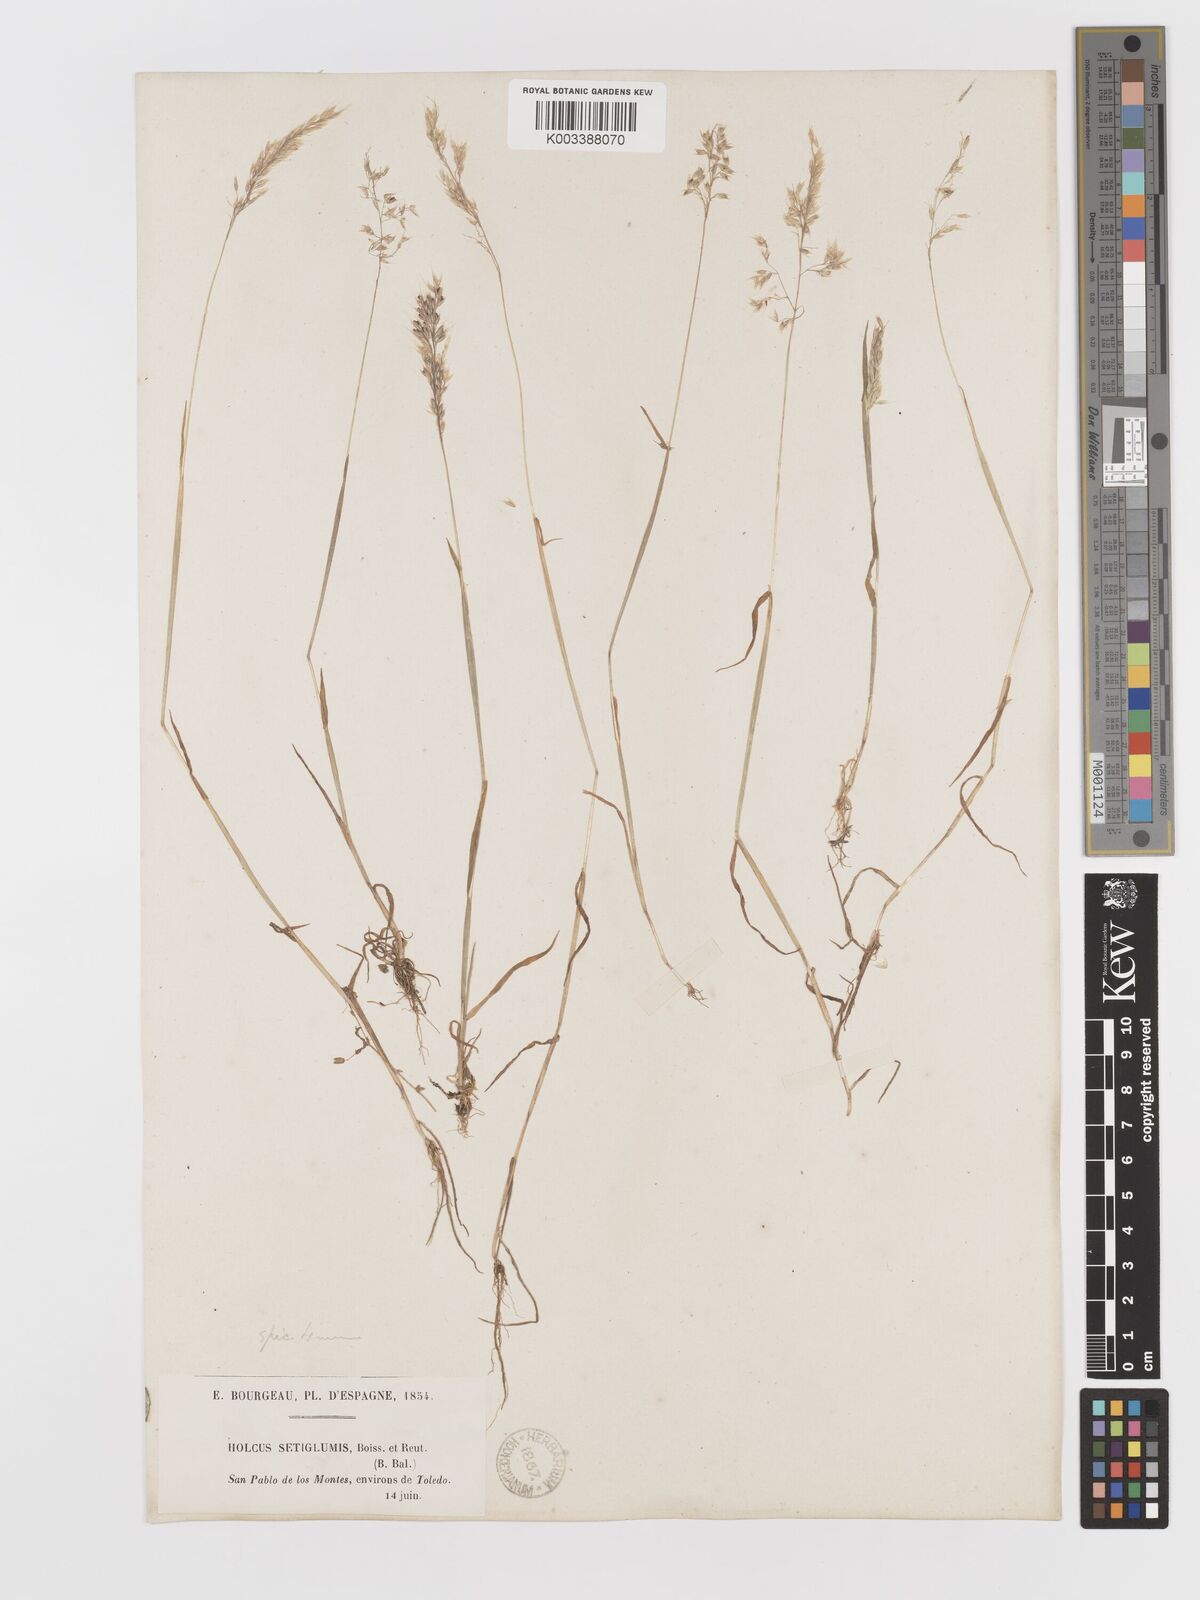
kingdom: Plantae
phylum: Tracheophyta
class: Liliopsida
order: Poales
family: Poaceae
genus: Holcus
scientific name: Holcus annuus
